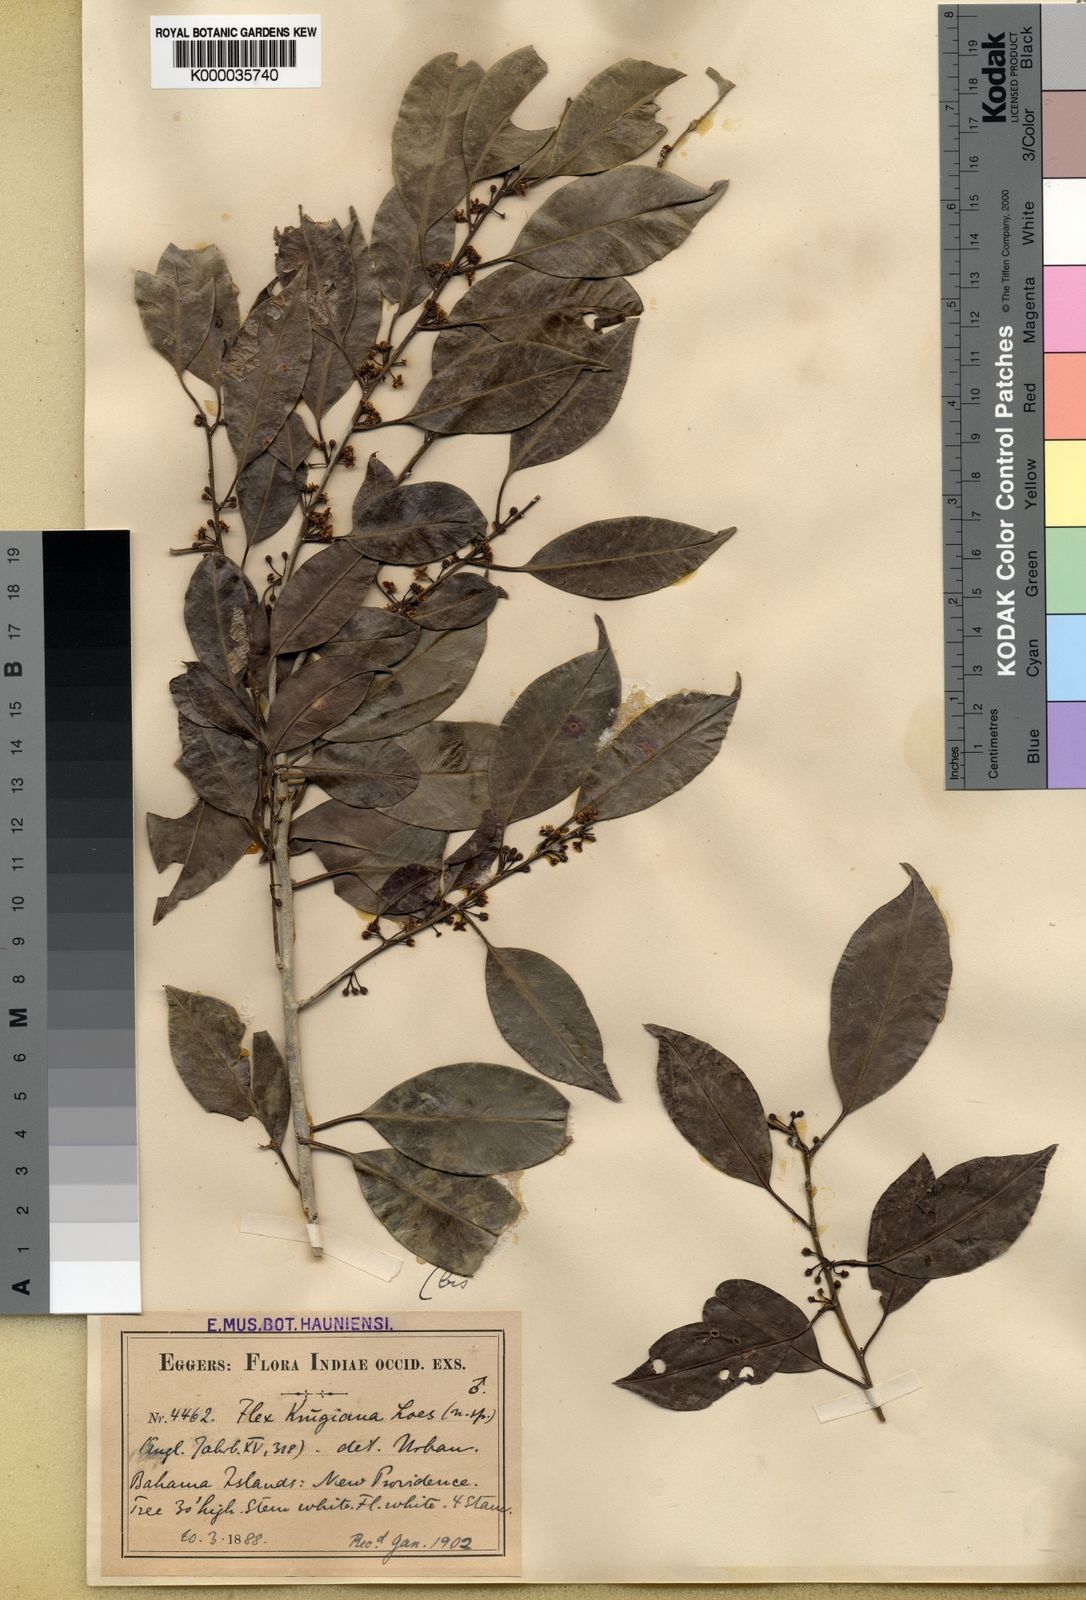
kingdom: Plantae
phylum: Tracheophyta
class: Magnoliopsida
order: Aquifoliales
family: Aquifoliaceae
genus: Ilex
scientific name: Ilex krugiana
